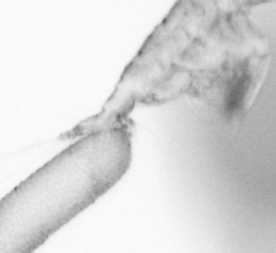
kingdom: Animalia
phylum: Arthropoda
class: Copepoda
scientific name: Copepoda
